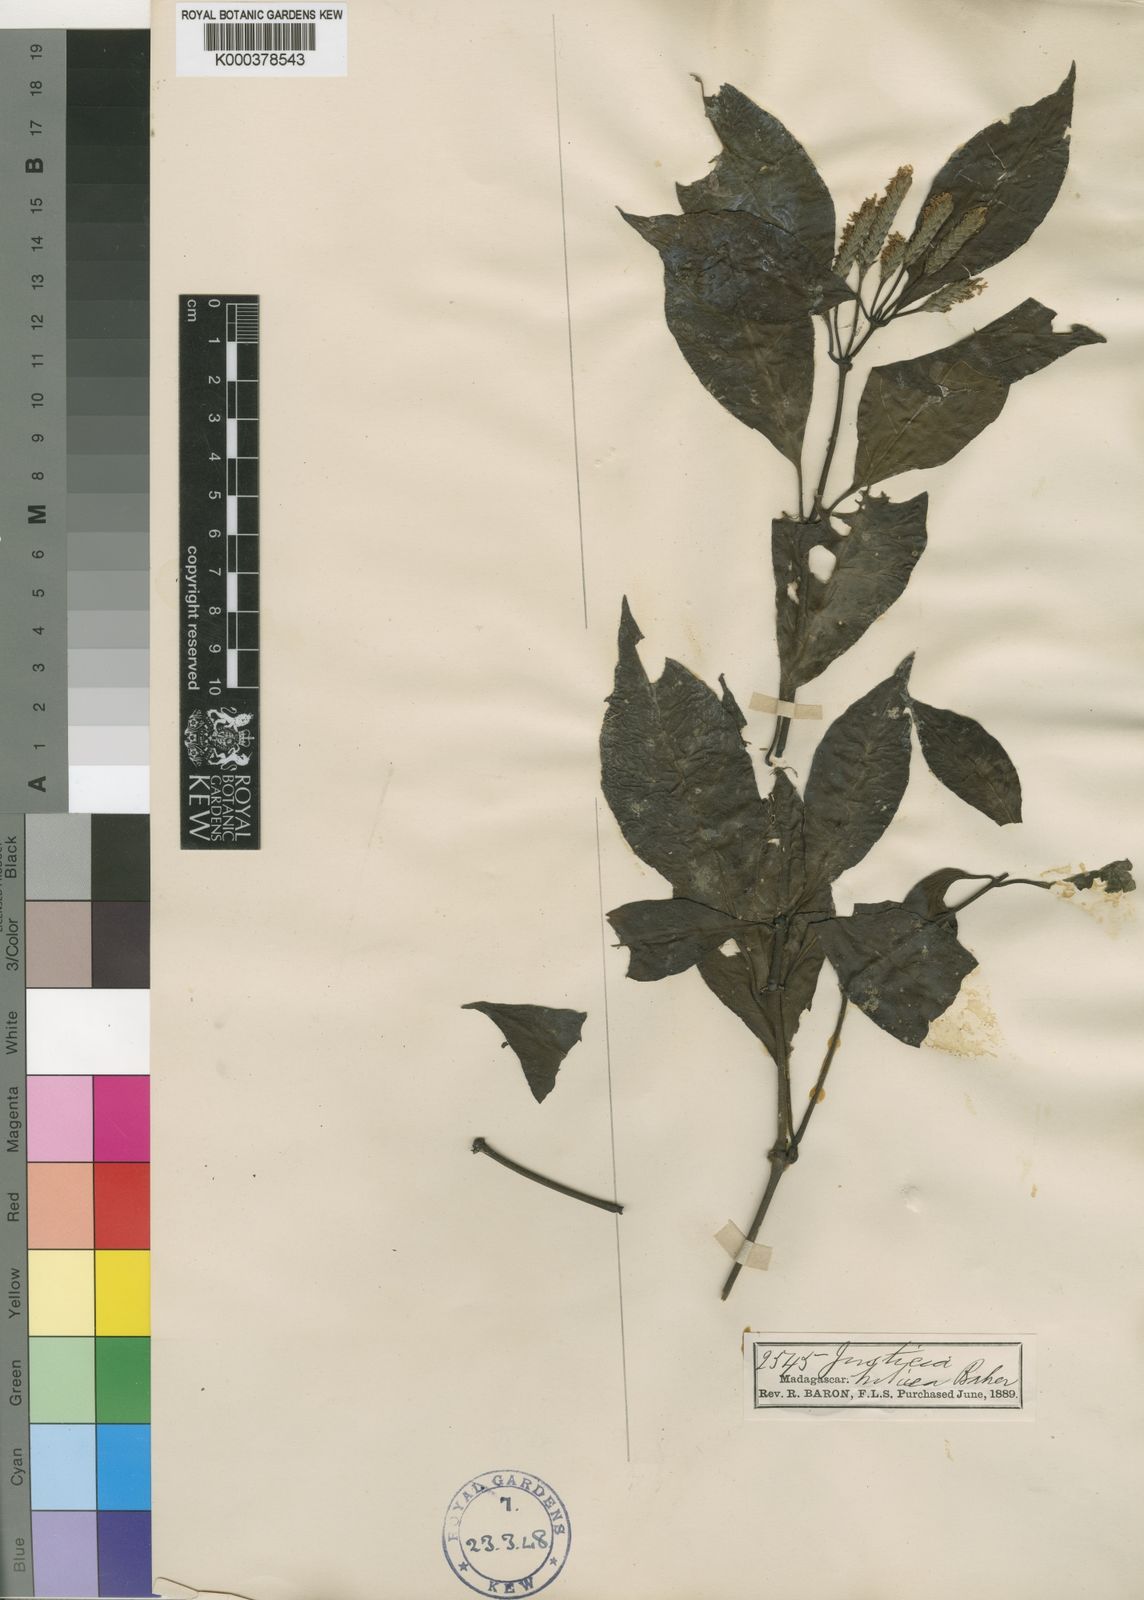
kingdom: Plantae
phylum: Tracheophyta
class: Magnoliopsida
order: Lamiales
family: Acanthaceae
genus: Anisostachya
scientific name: Anisostachya triticea
